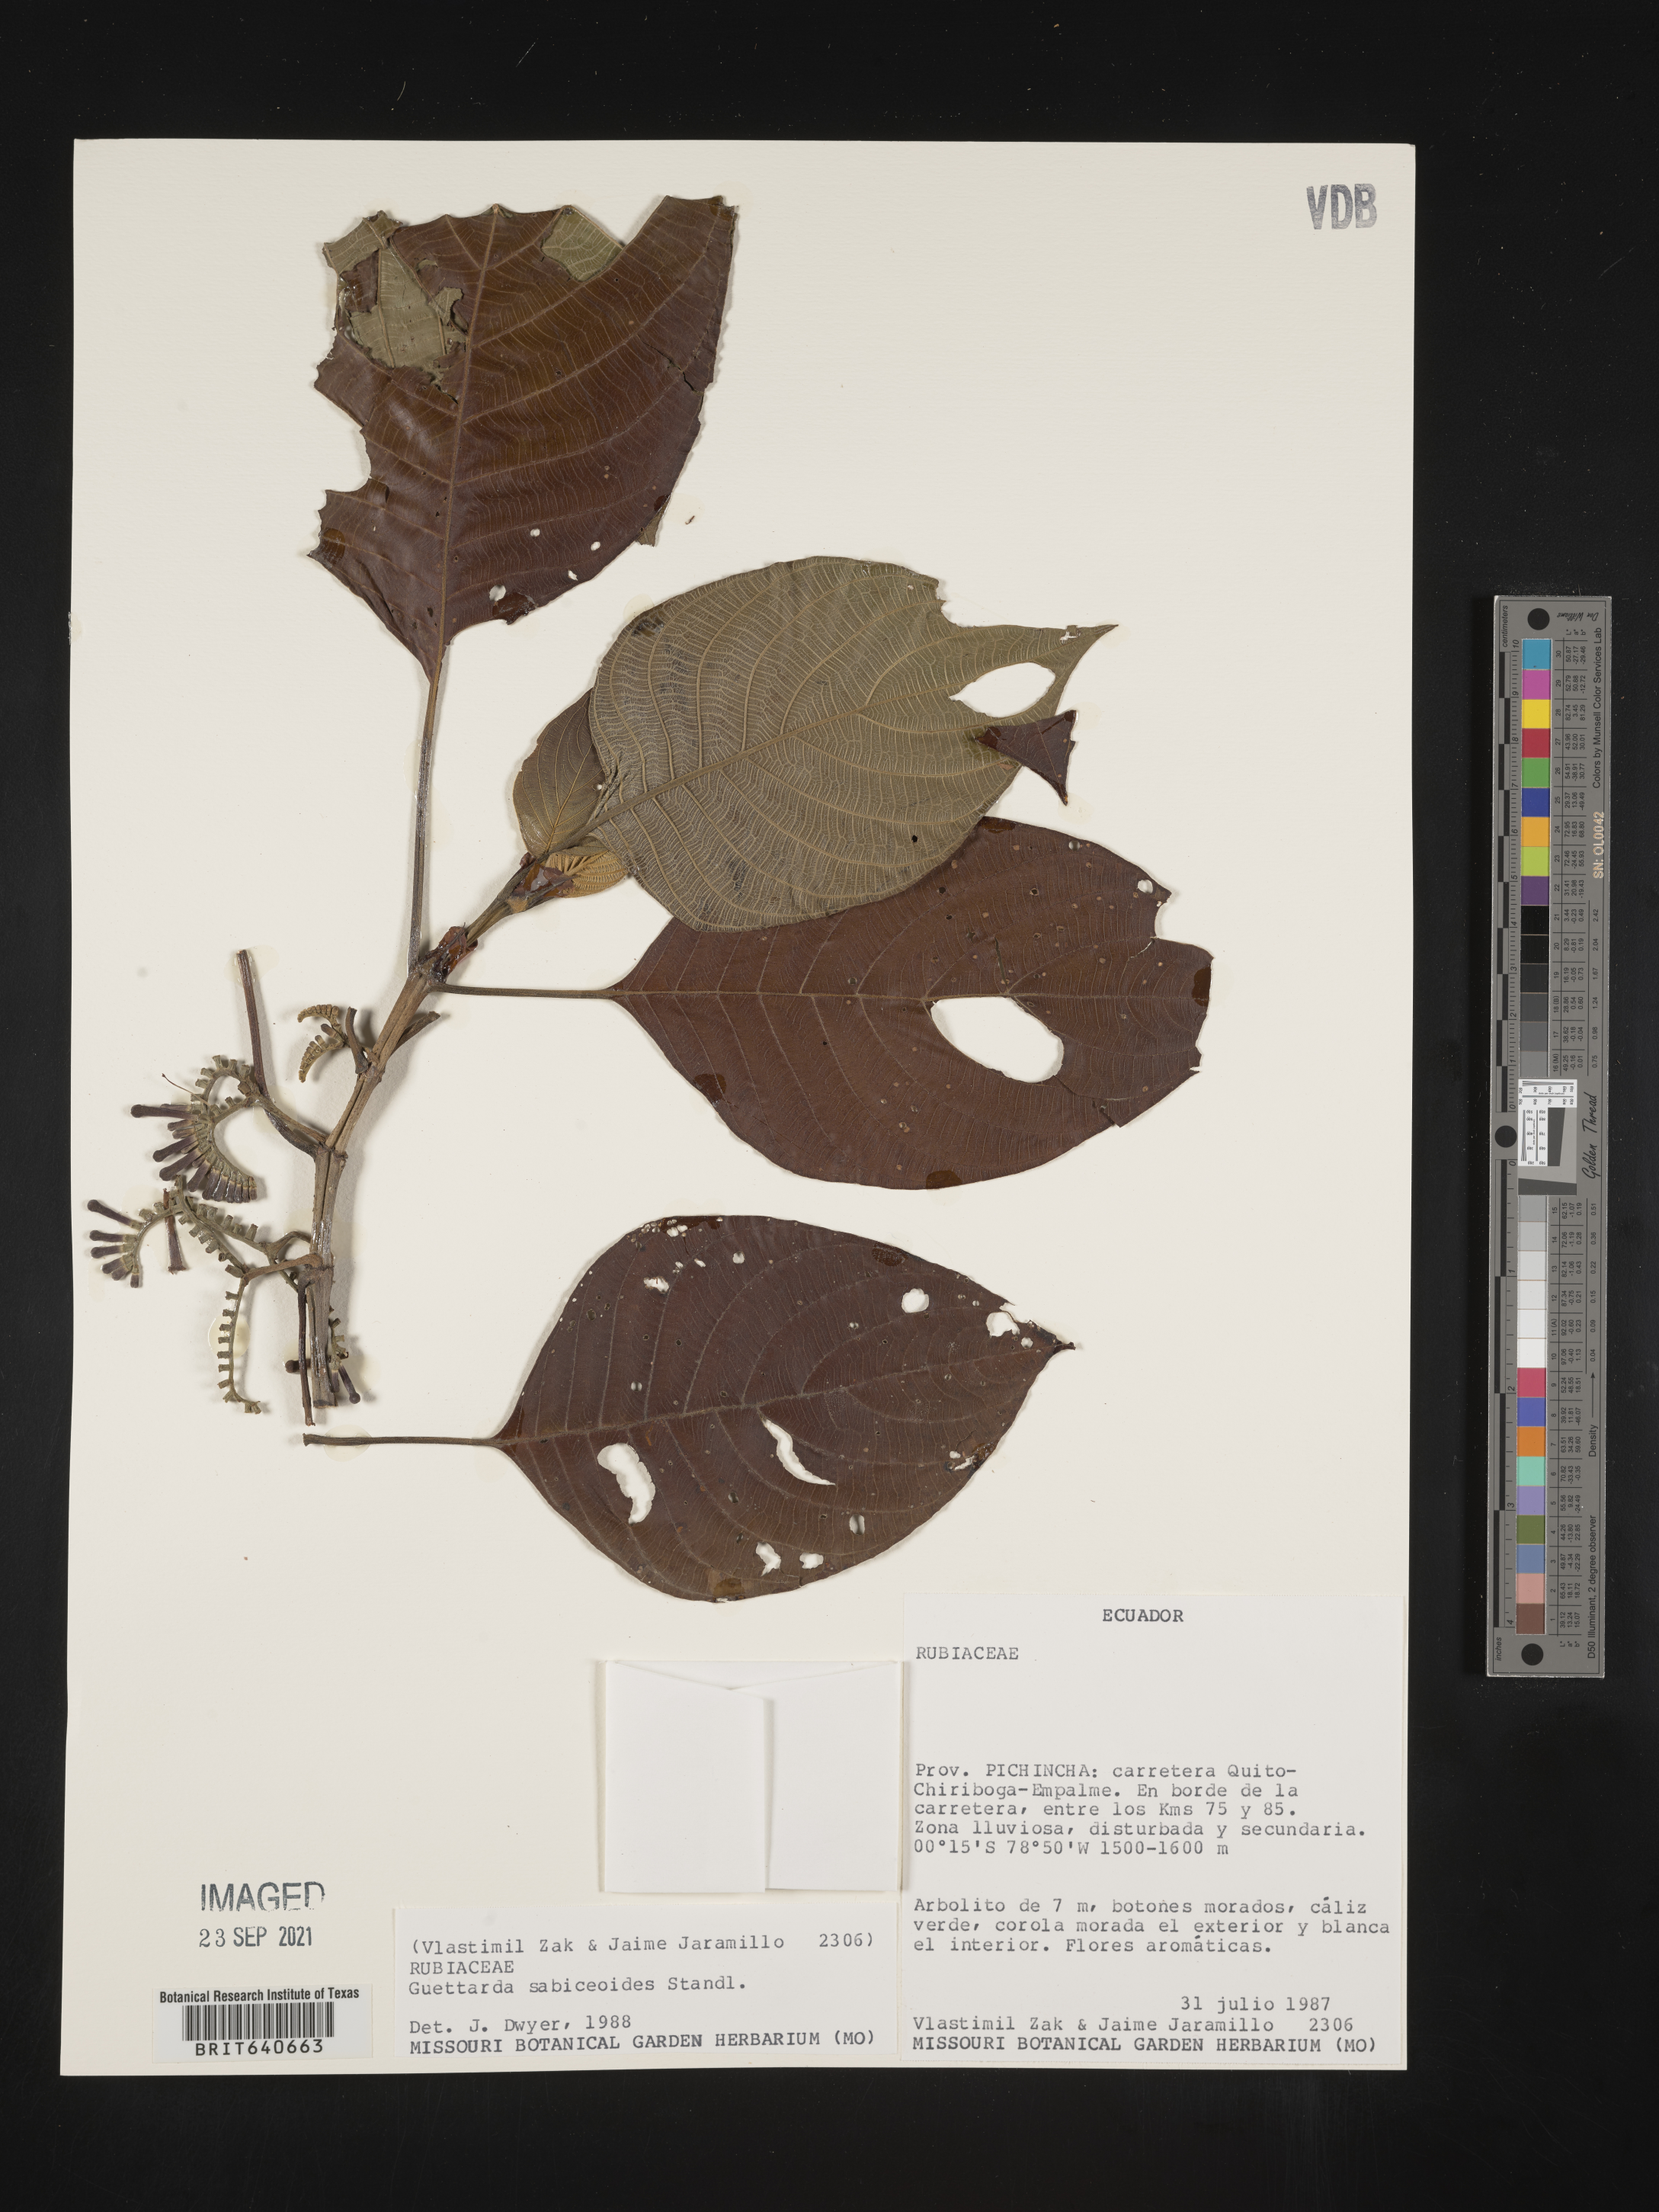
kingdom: Plantae
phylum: Tracheophyta
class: Magnoliopsida
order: Gentianales
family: Rubiaceae
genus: Guettarda
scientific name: Guettarda
